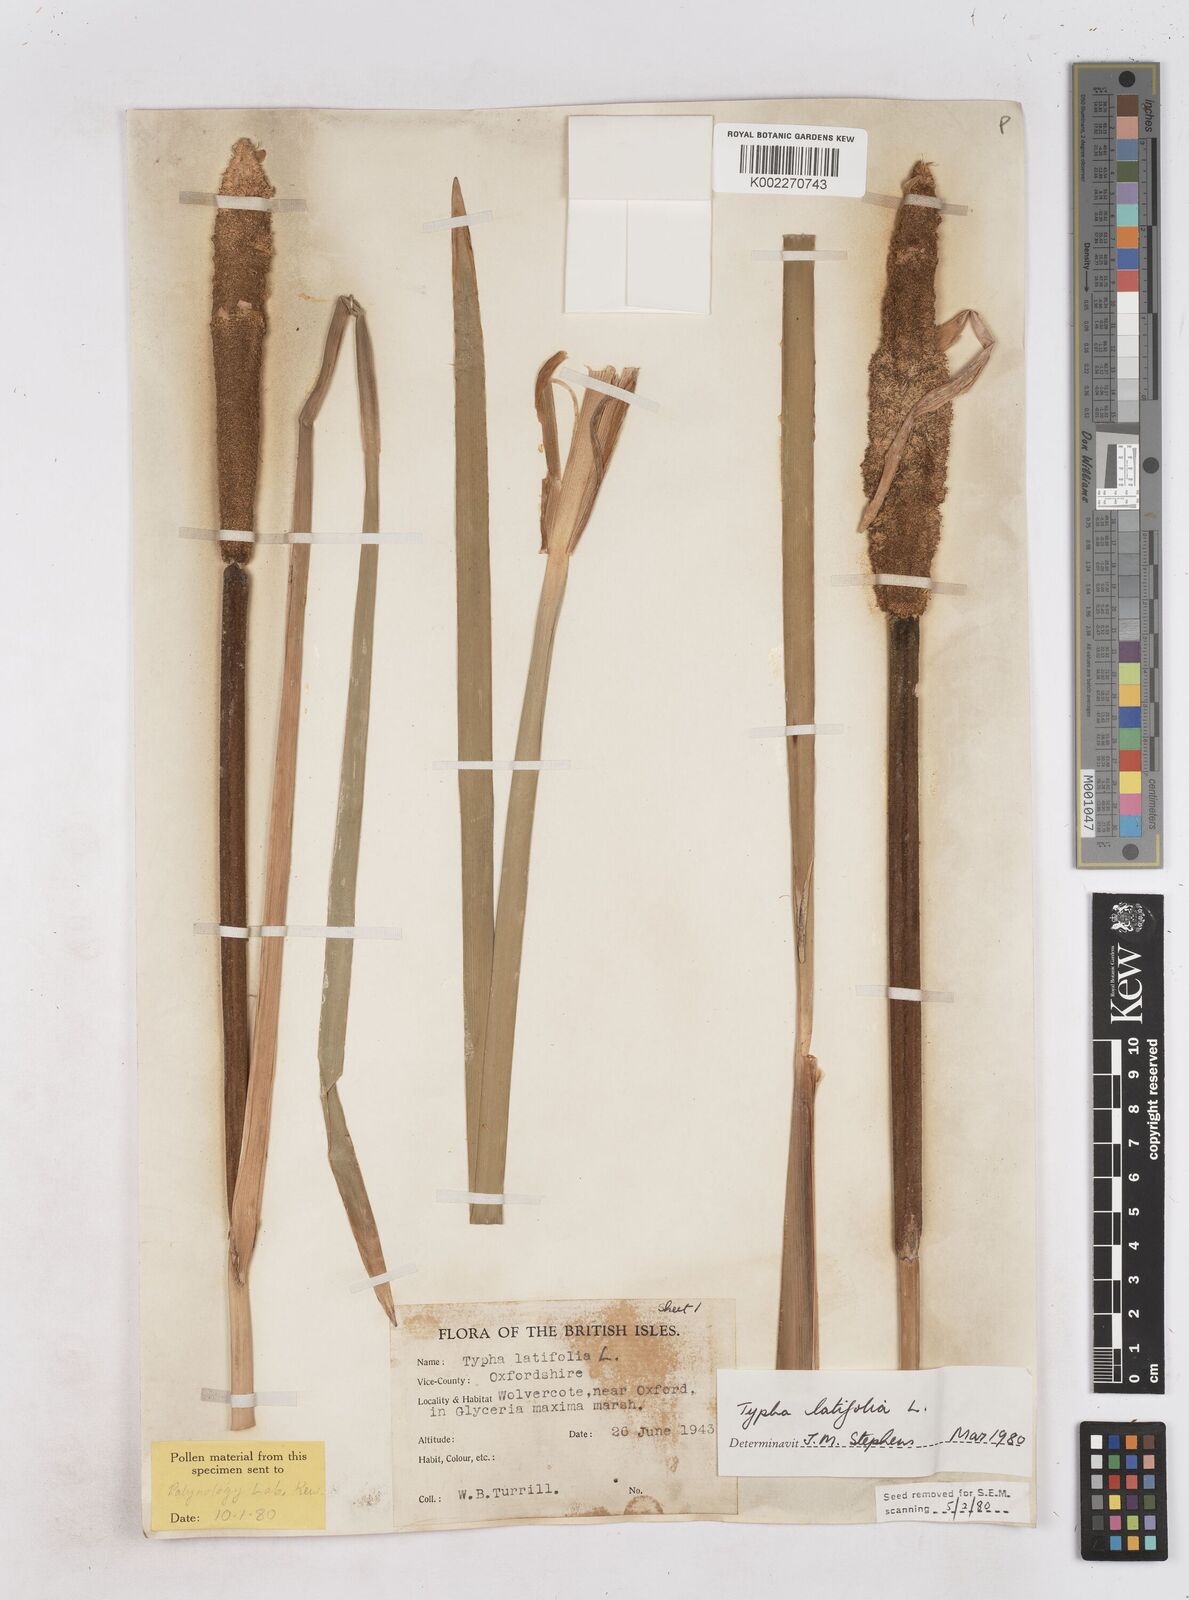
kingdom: Plantae
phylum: Tracheophyta
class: Liliopsida
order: Poales
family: Typhaceae
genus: Typha
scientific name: Typha latifolia
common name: Broadleaf cattail
